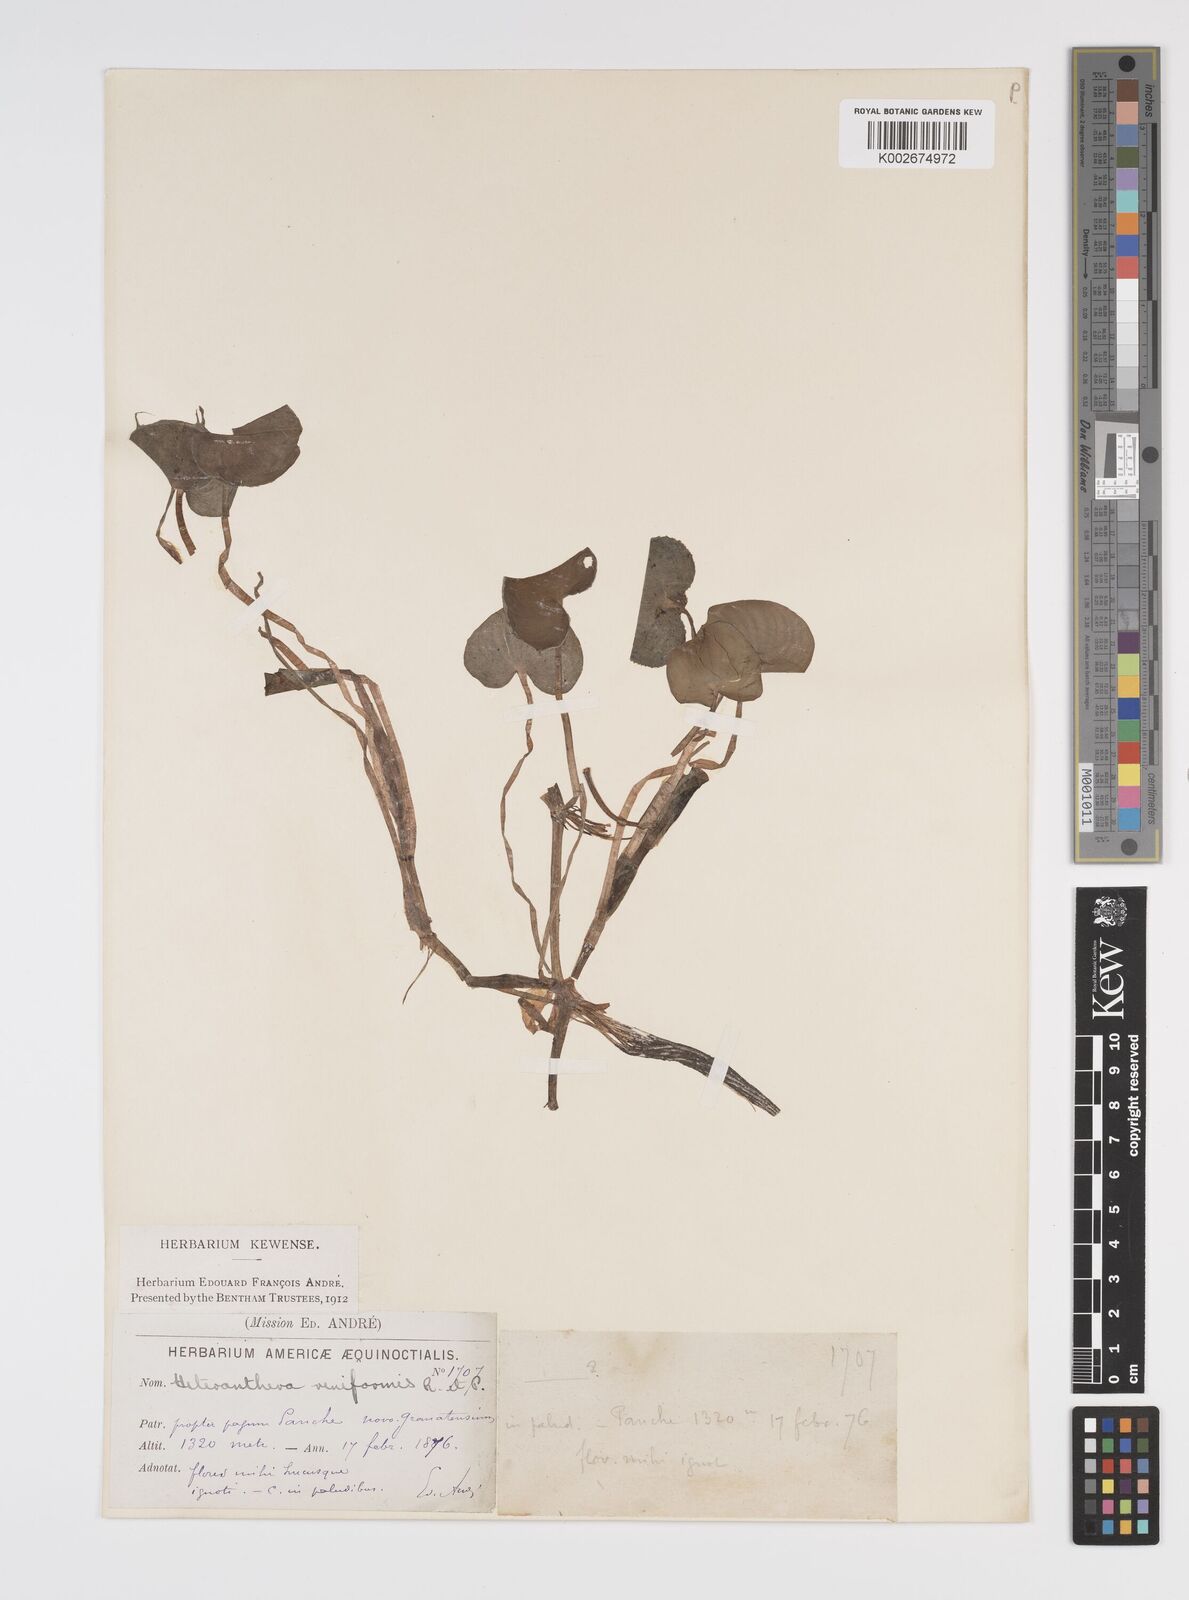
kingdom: Plantae
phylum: Tracheophyta
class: Liliopsida
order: Commelinales
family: Pontederiaceae
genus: Heteranthera
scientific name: Heteranthera reniformis
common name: Kidneyleaf mudplantain
